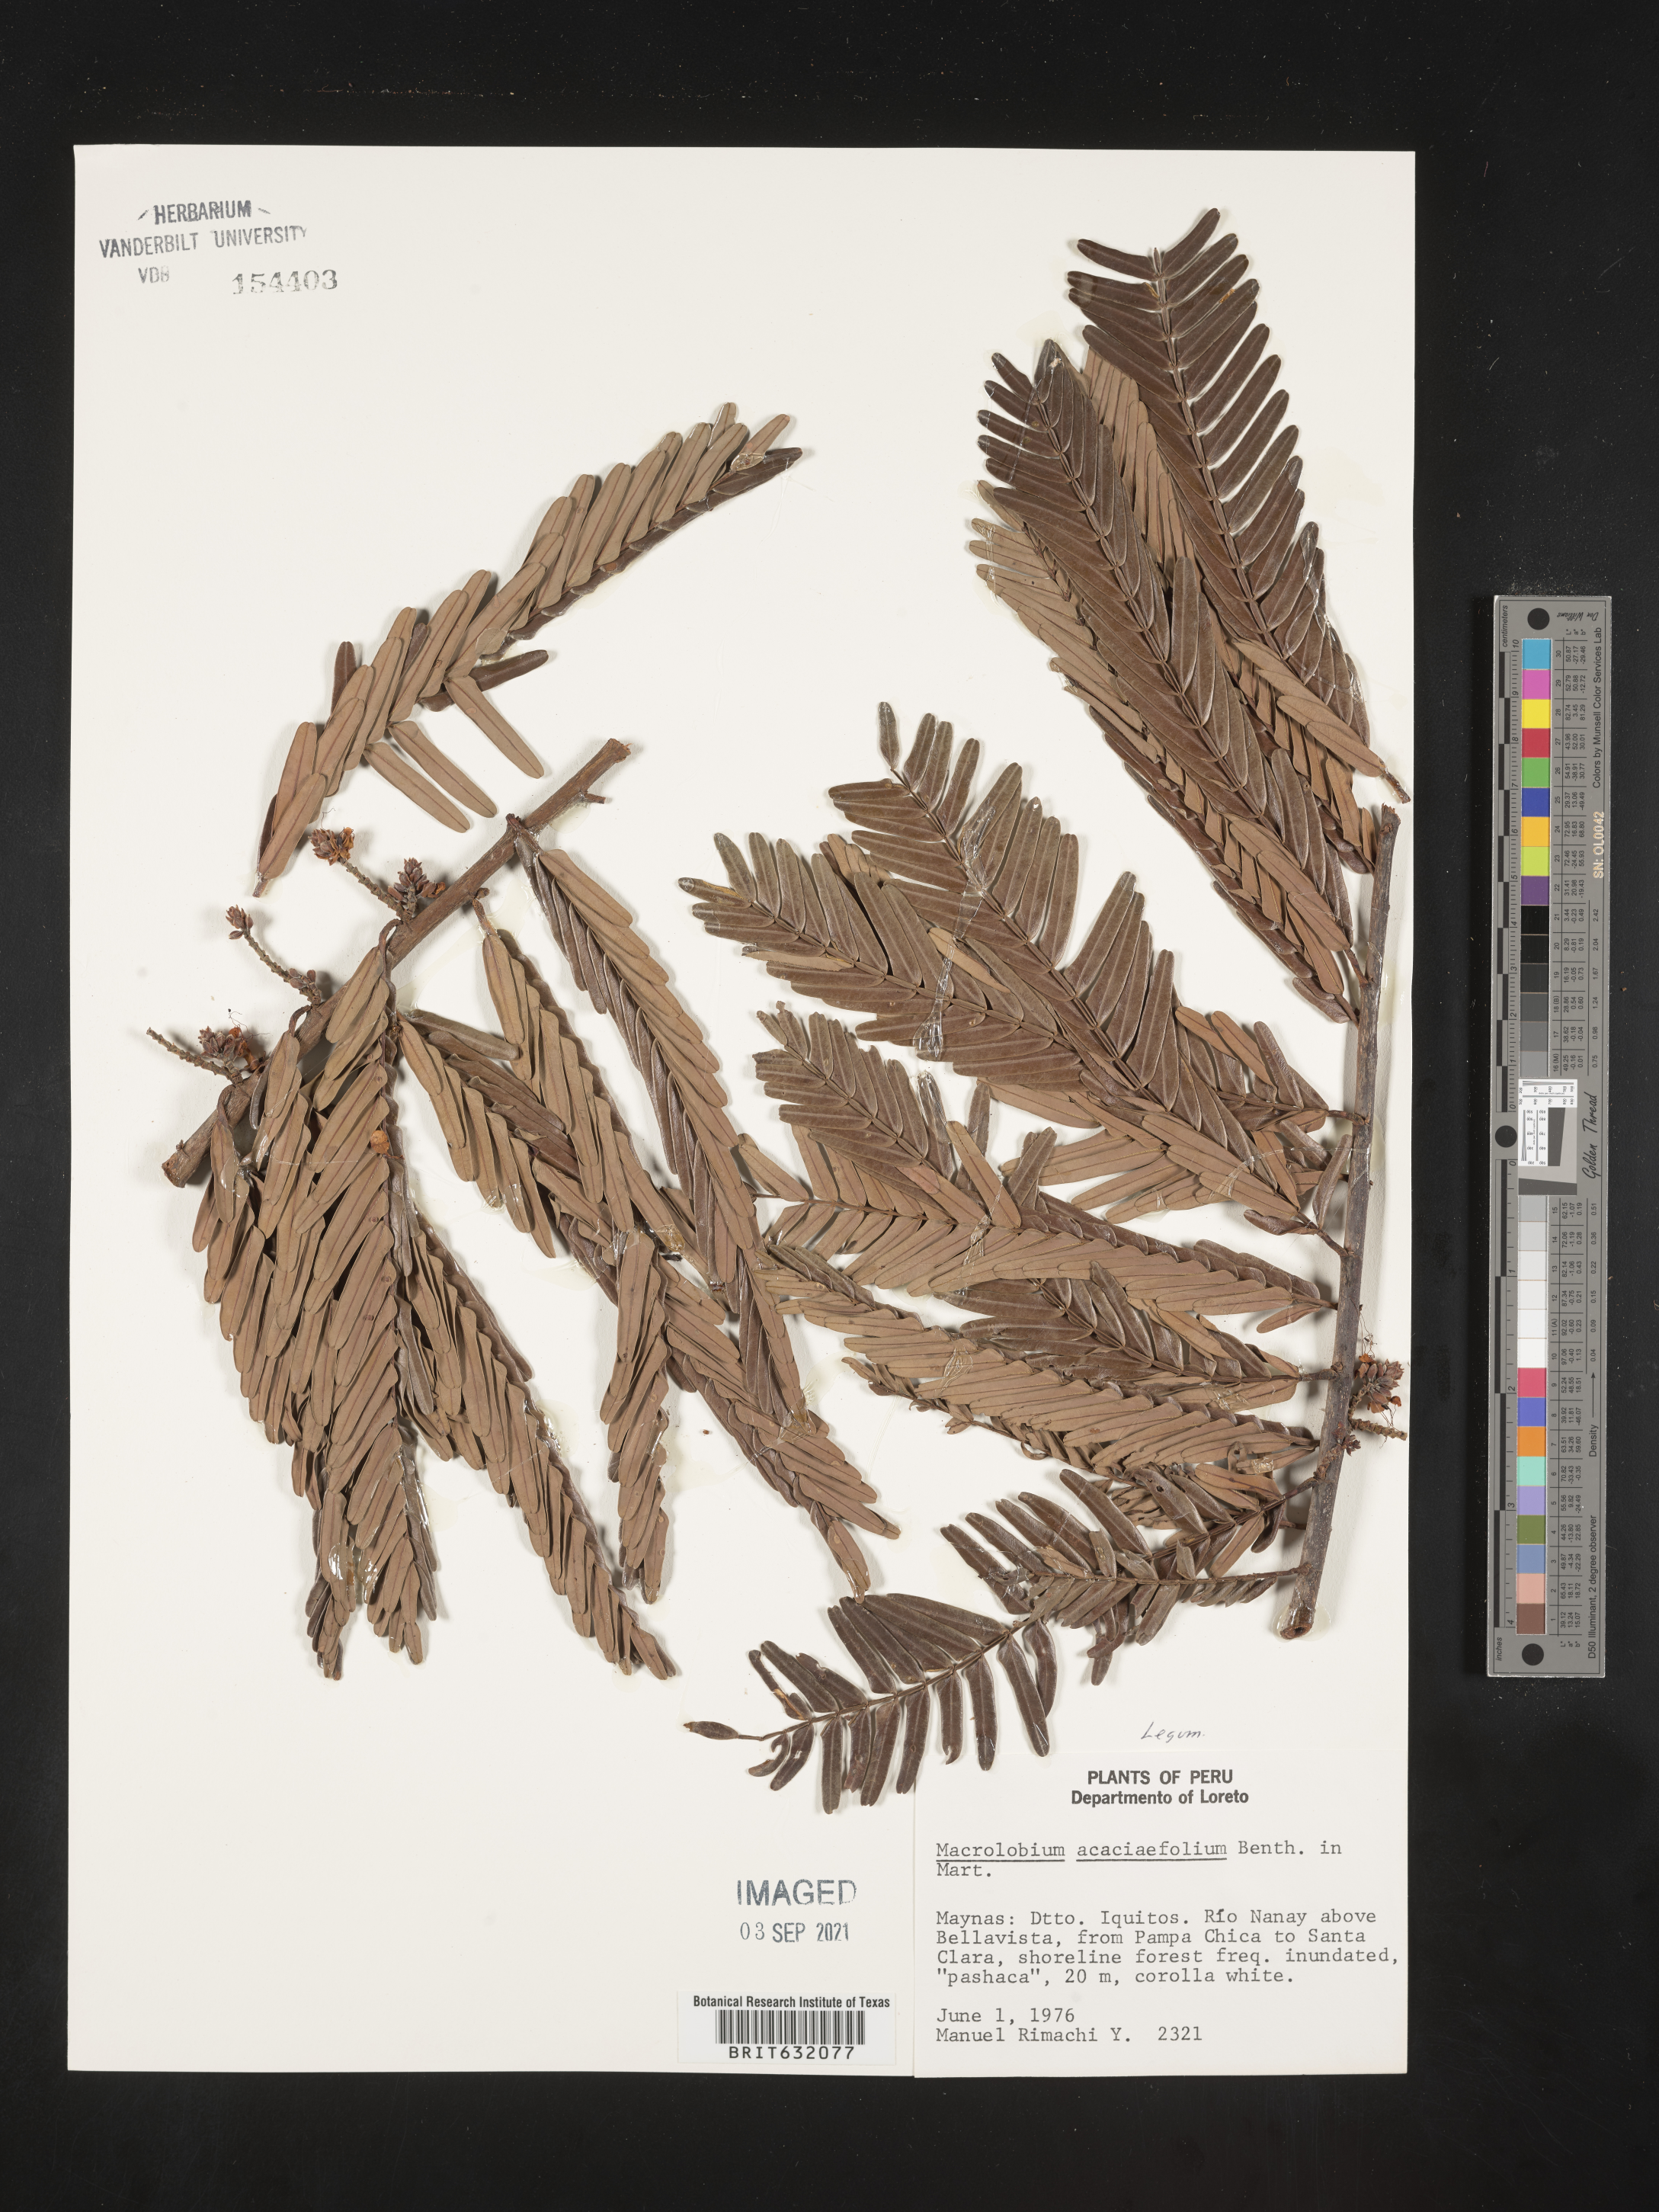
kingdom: Plantae
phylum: Tracheophyta
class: Magnoliopsida
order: Fabales
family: Fabaceae
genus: Macrolobium
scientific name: Macrolobium
